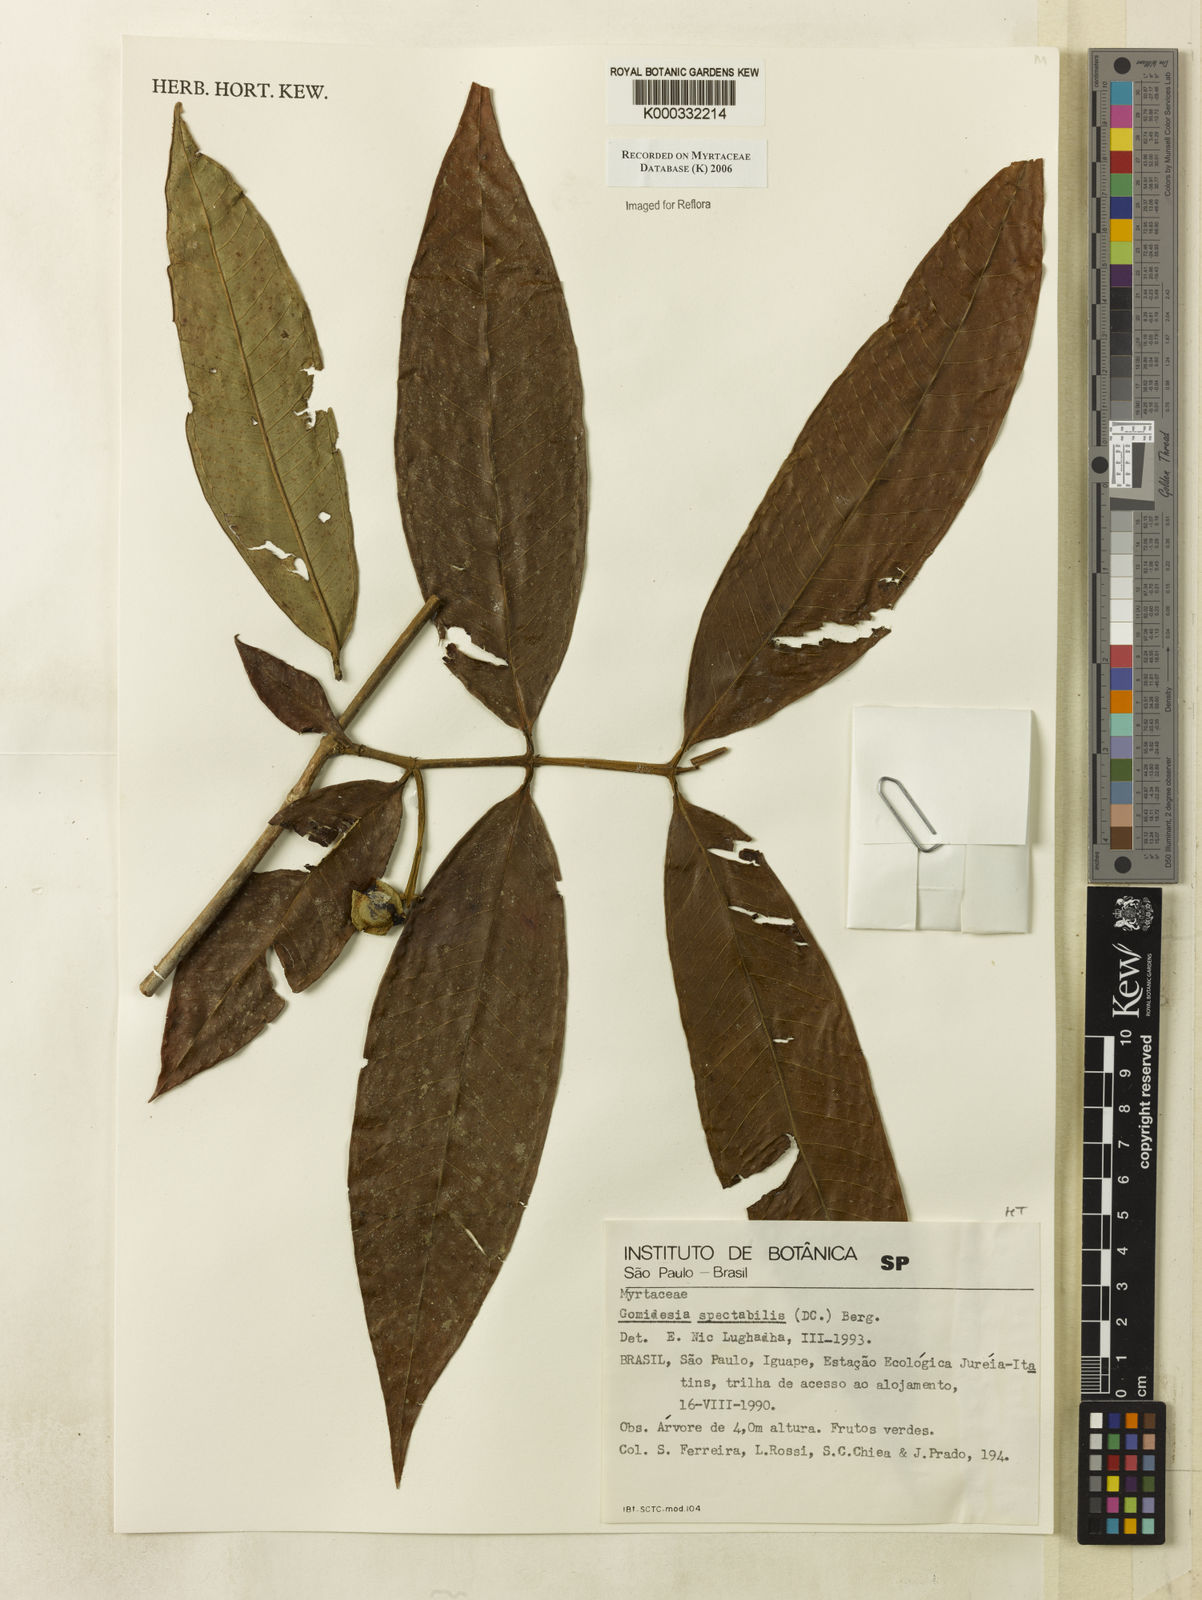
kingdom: Plantae
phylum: Tracheophyta
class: Magnoliopsida
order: Myrtales
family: Myrtaceae
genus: Myrcia
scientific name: Myrcia spectabilis
